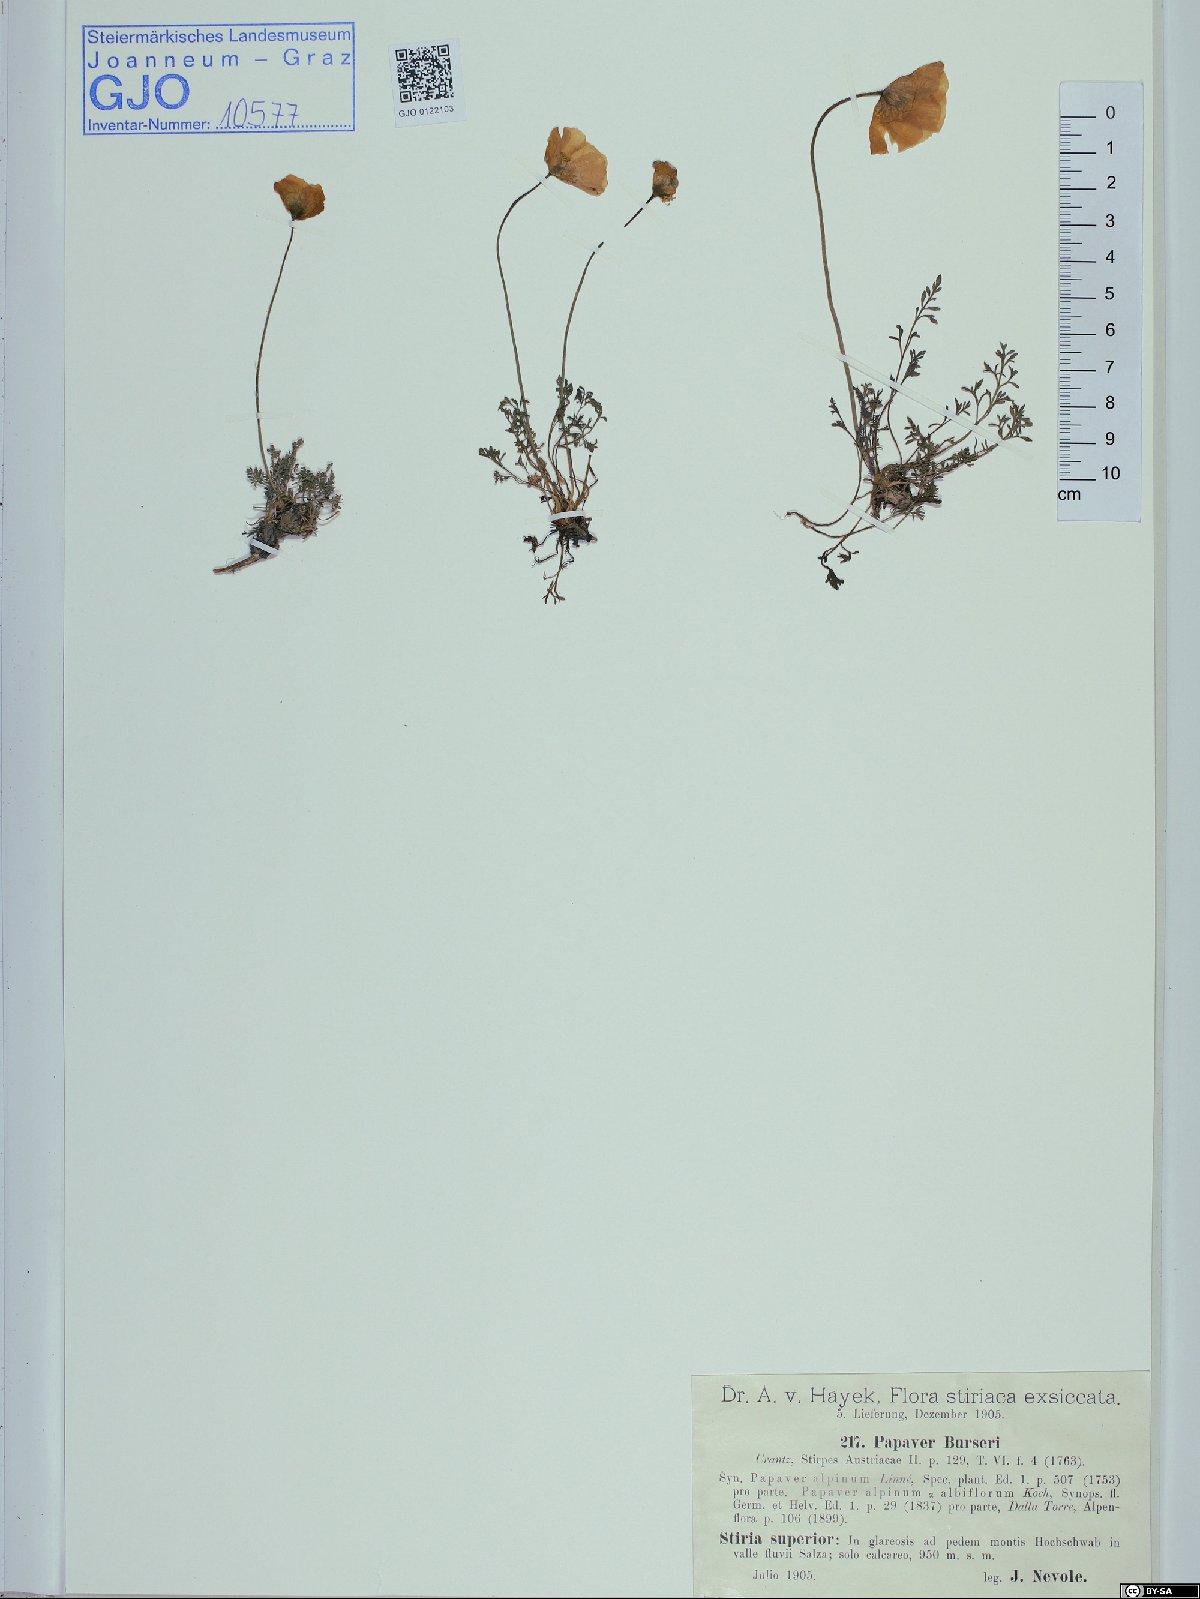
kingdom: Plantae
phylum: Tracheophyta
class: Magnoliopsida
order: Ranunculales
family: Papaveraceae
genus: Papaver
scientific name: Papaver alpinum
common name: Austrian poppy
